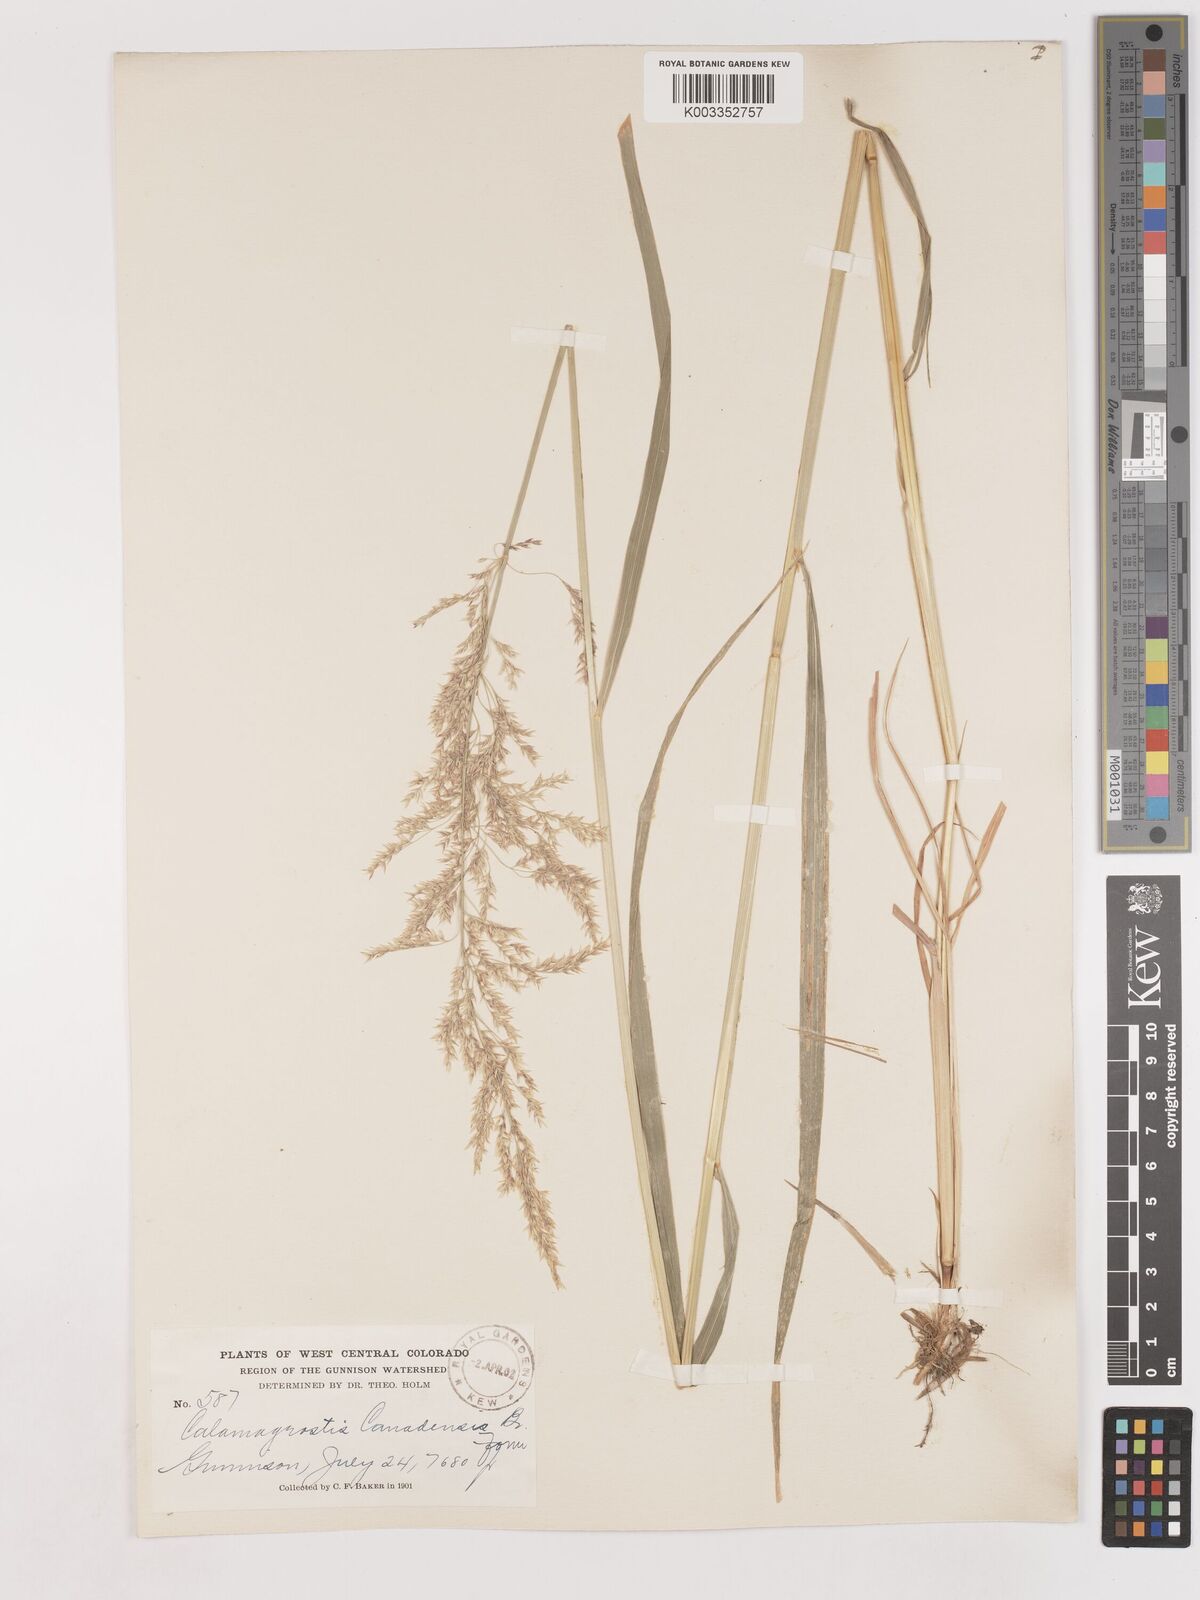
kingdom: Plantae
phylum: Tracheophyta
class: Liliopsida
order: Poales
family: Poaceae
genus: Calamagrostis
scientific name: Calamagrostis canadensis
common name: Canada bluejoint
